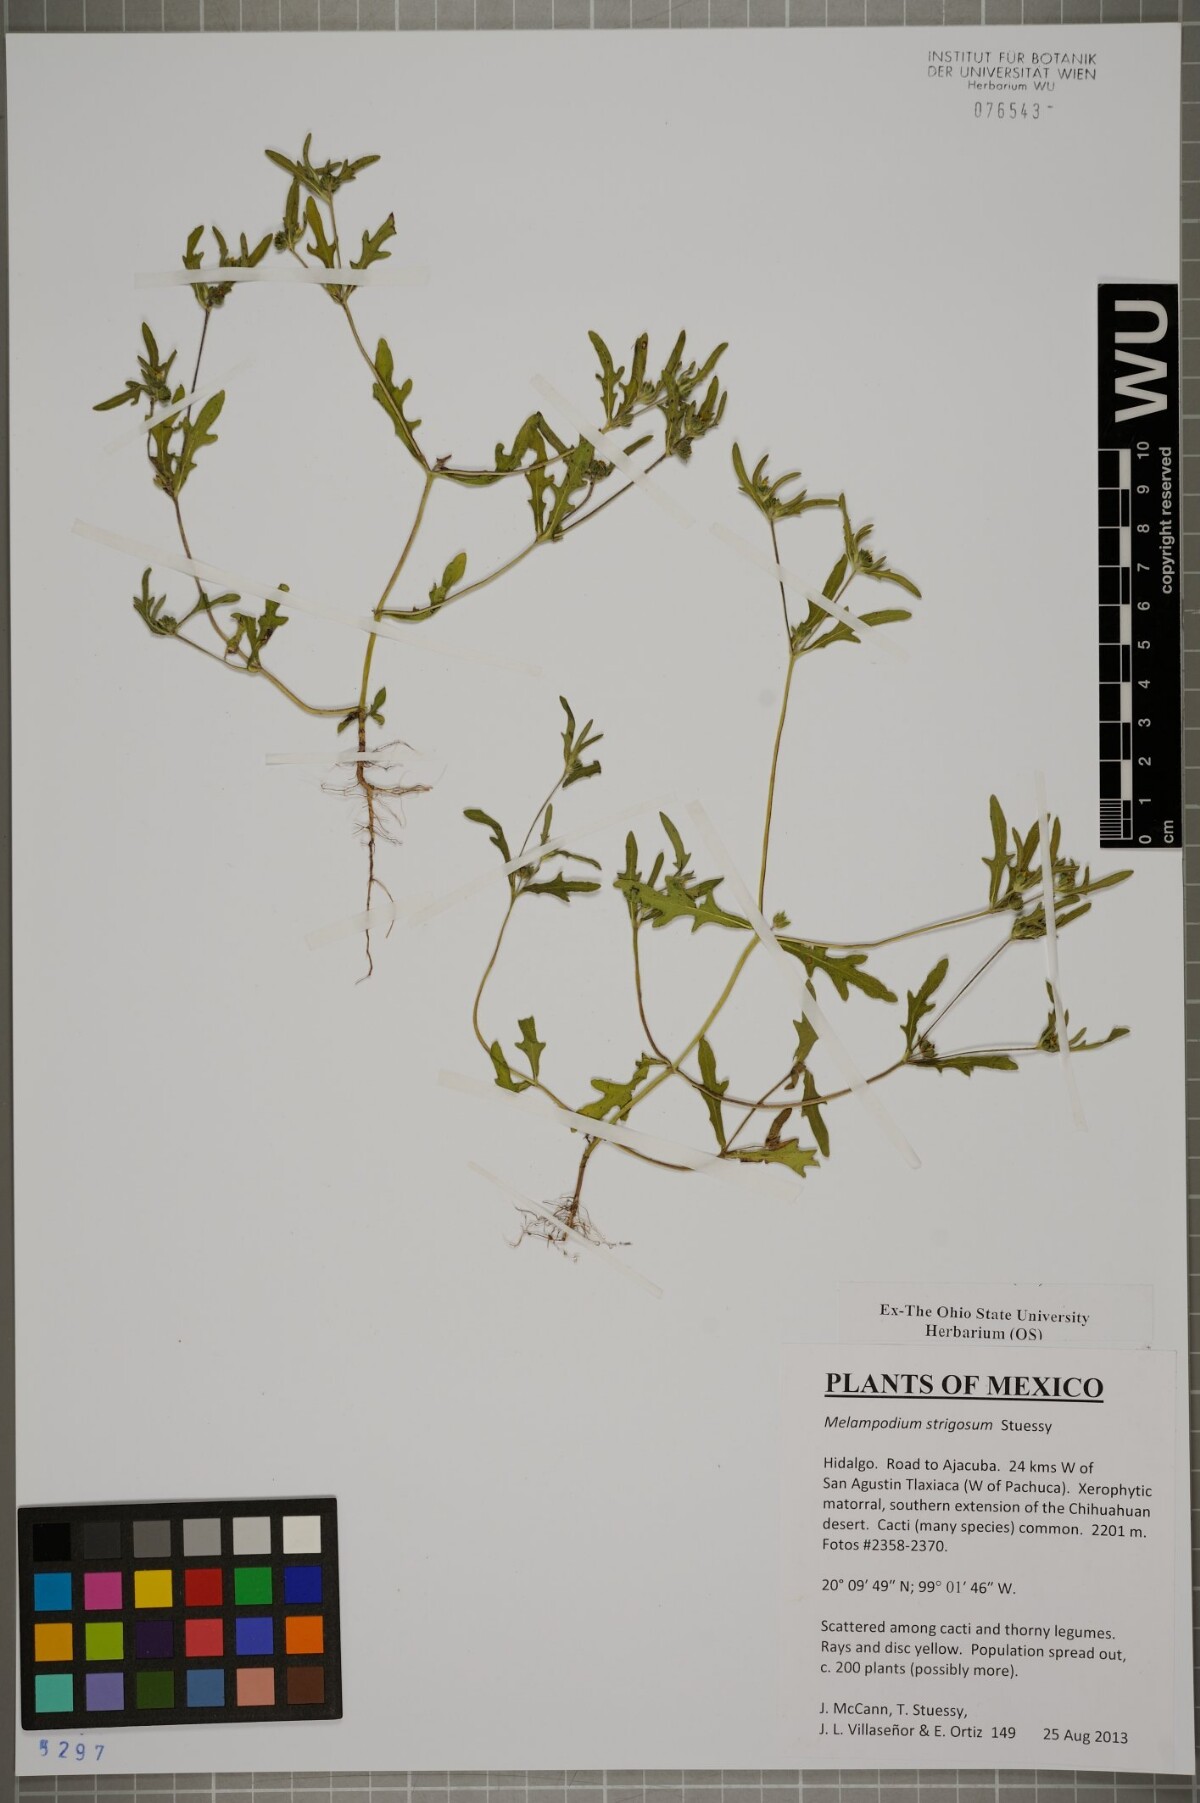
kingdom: Plantae
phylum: Tracheophyta
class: Magnoliopsida
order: Asterales
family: Asteraceae
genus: Melampodium
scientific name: Melampodium strigosum
